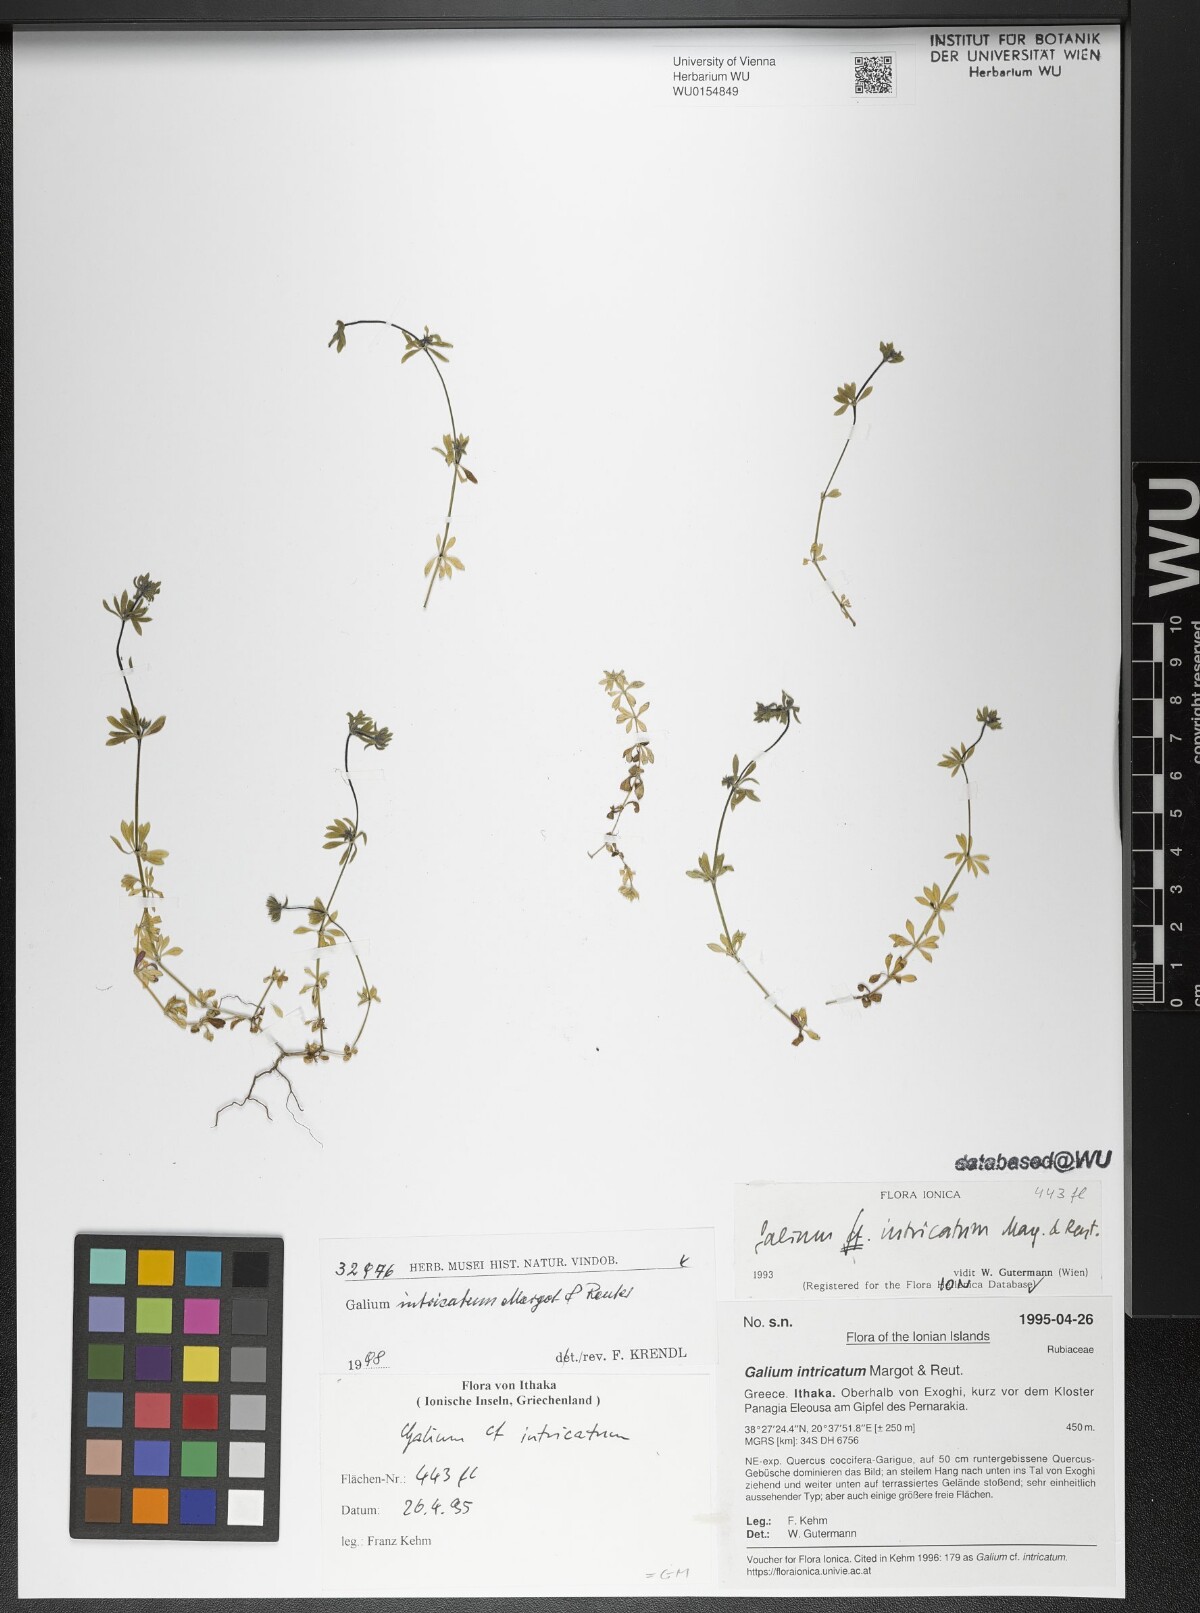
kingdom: Plantae
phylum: Tracheophyta
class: Magnoliopsida
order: Gentianales
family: Rubiaceae
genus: Galium
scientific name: Galium intricatum
